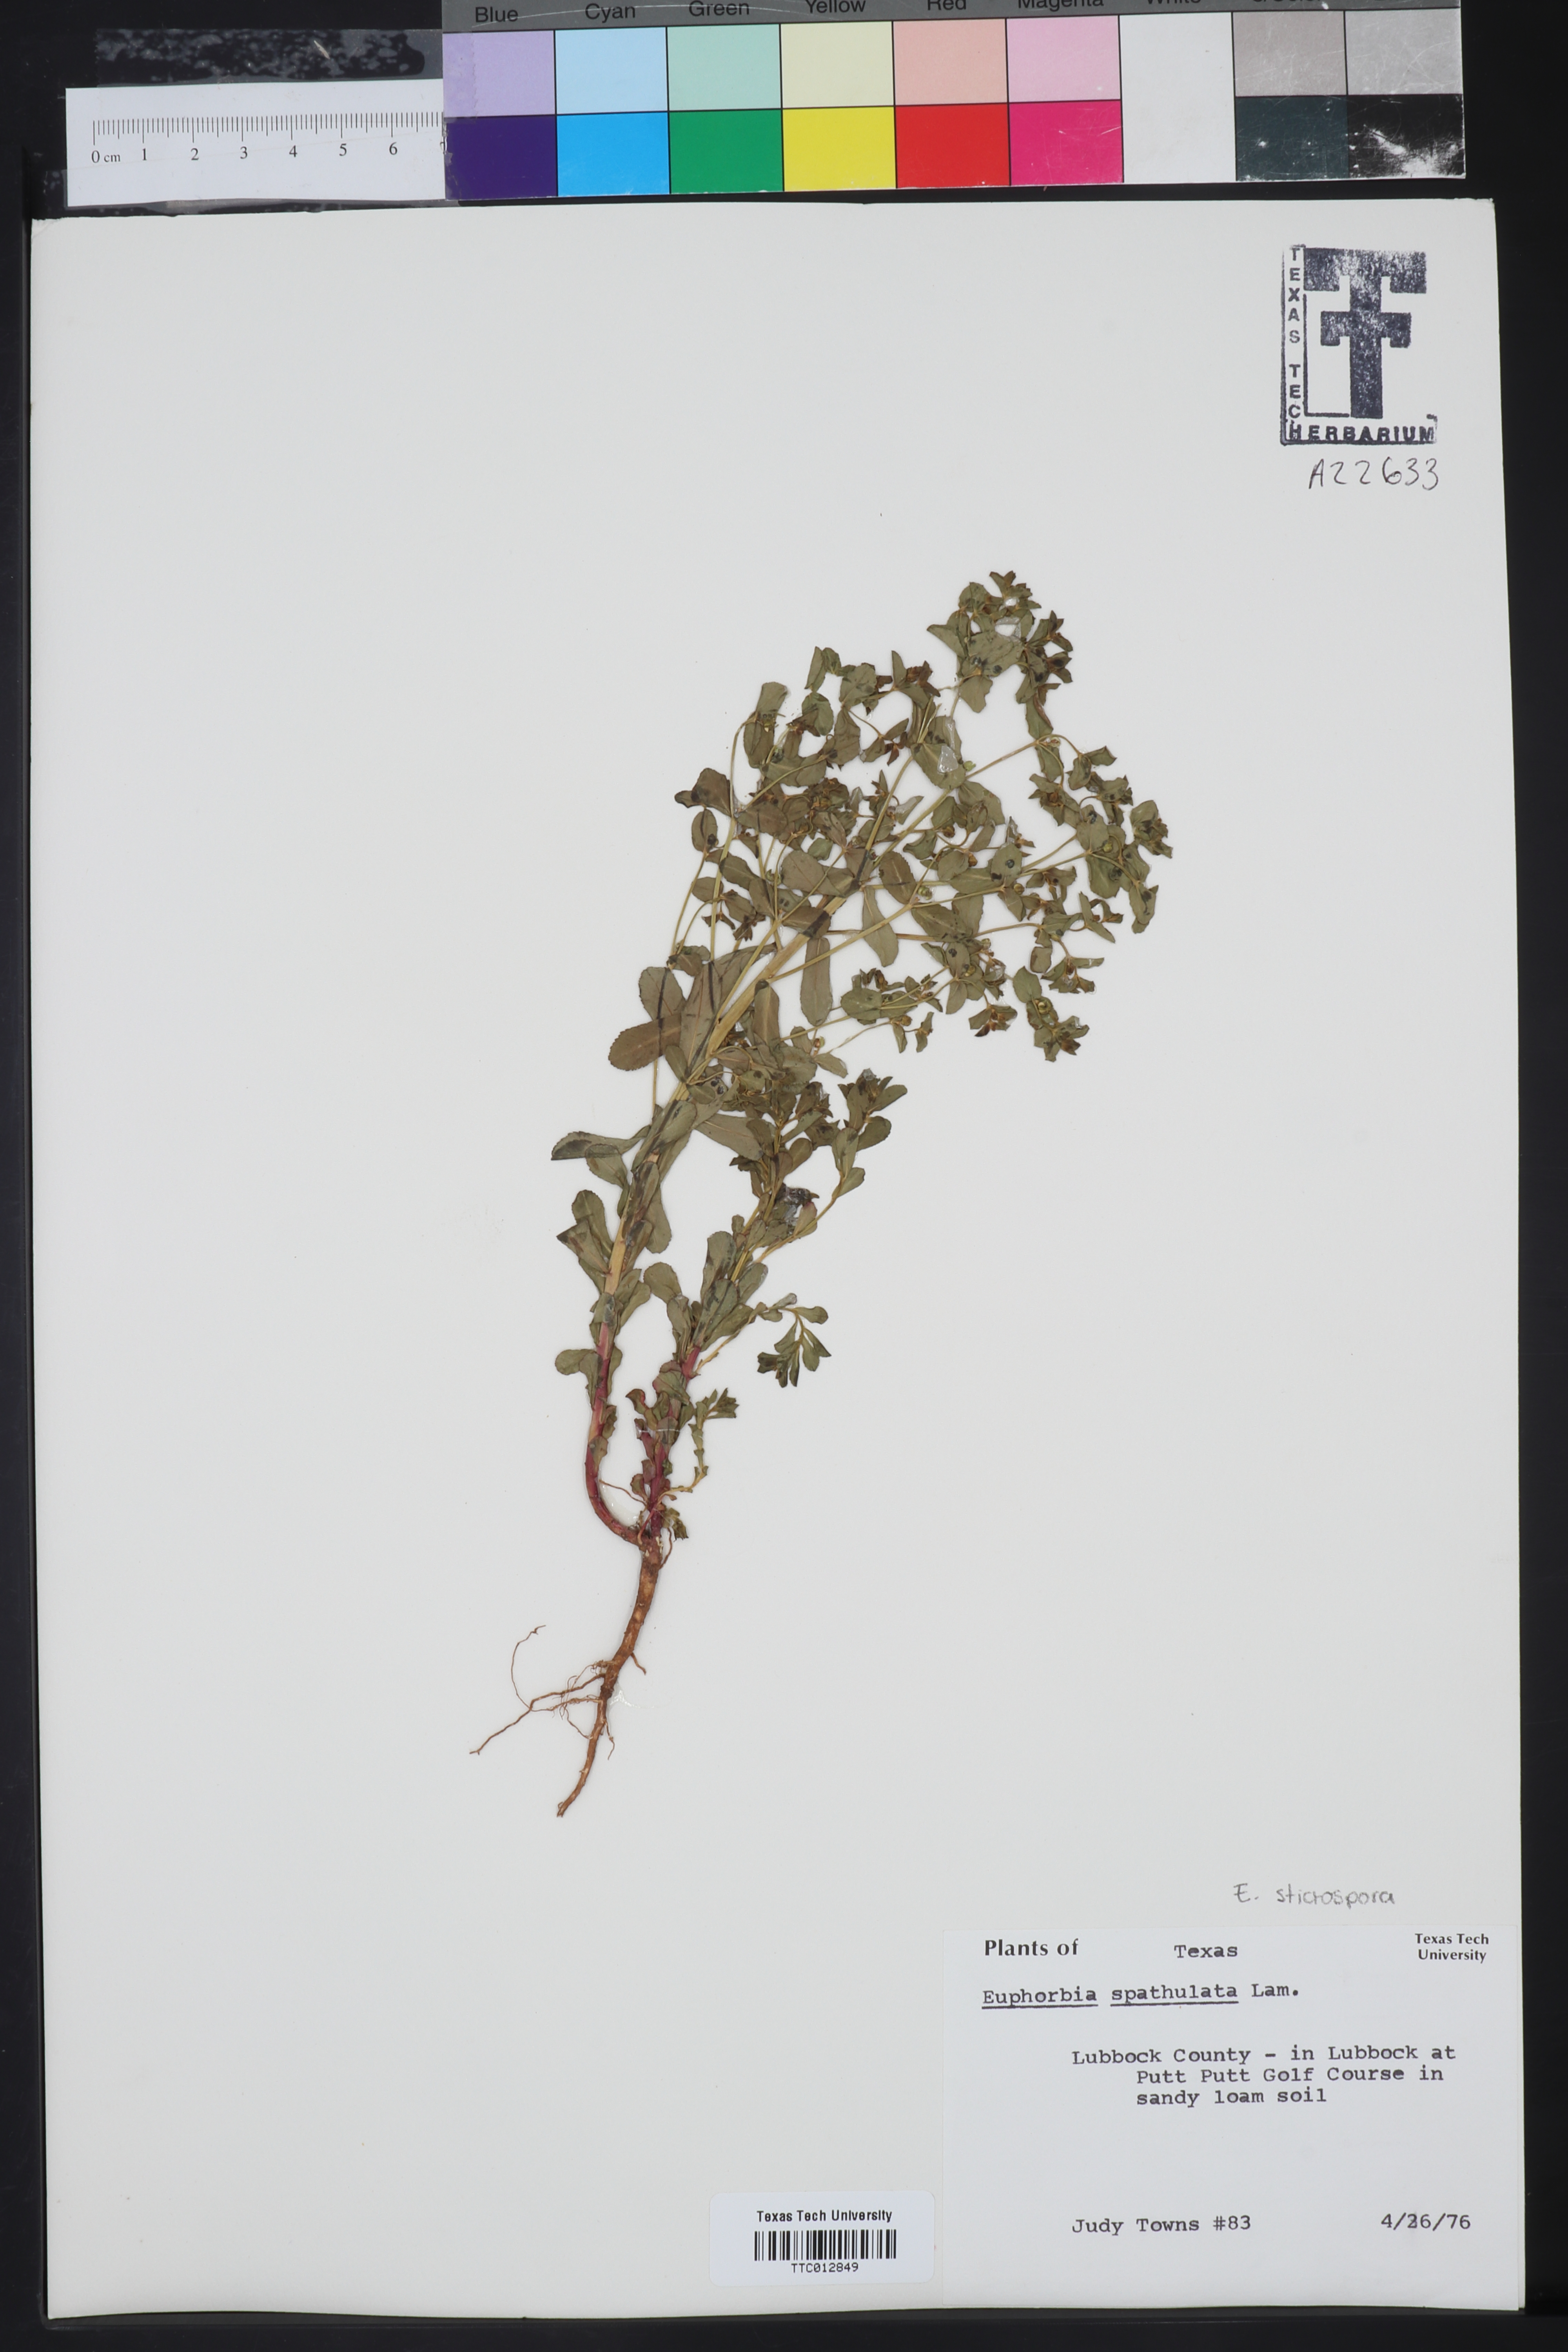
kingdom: Plantae
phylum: Tracheophyta
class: Magnoliopsida
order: Malpighiales
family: Euphorbiaceae
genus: Euphorbia
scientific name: Euphorbia spathulata
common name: Blunt spurge
